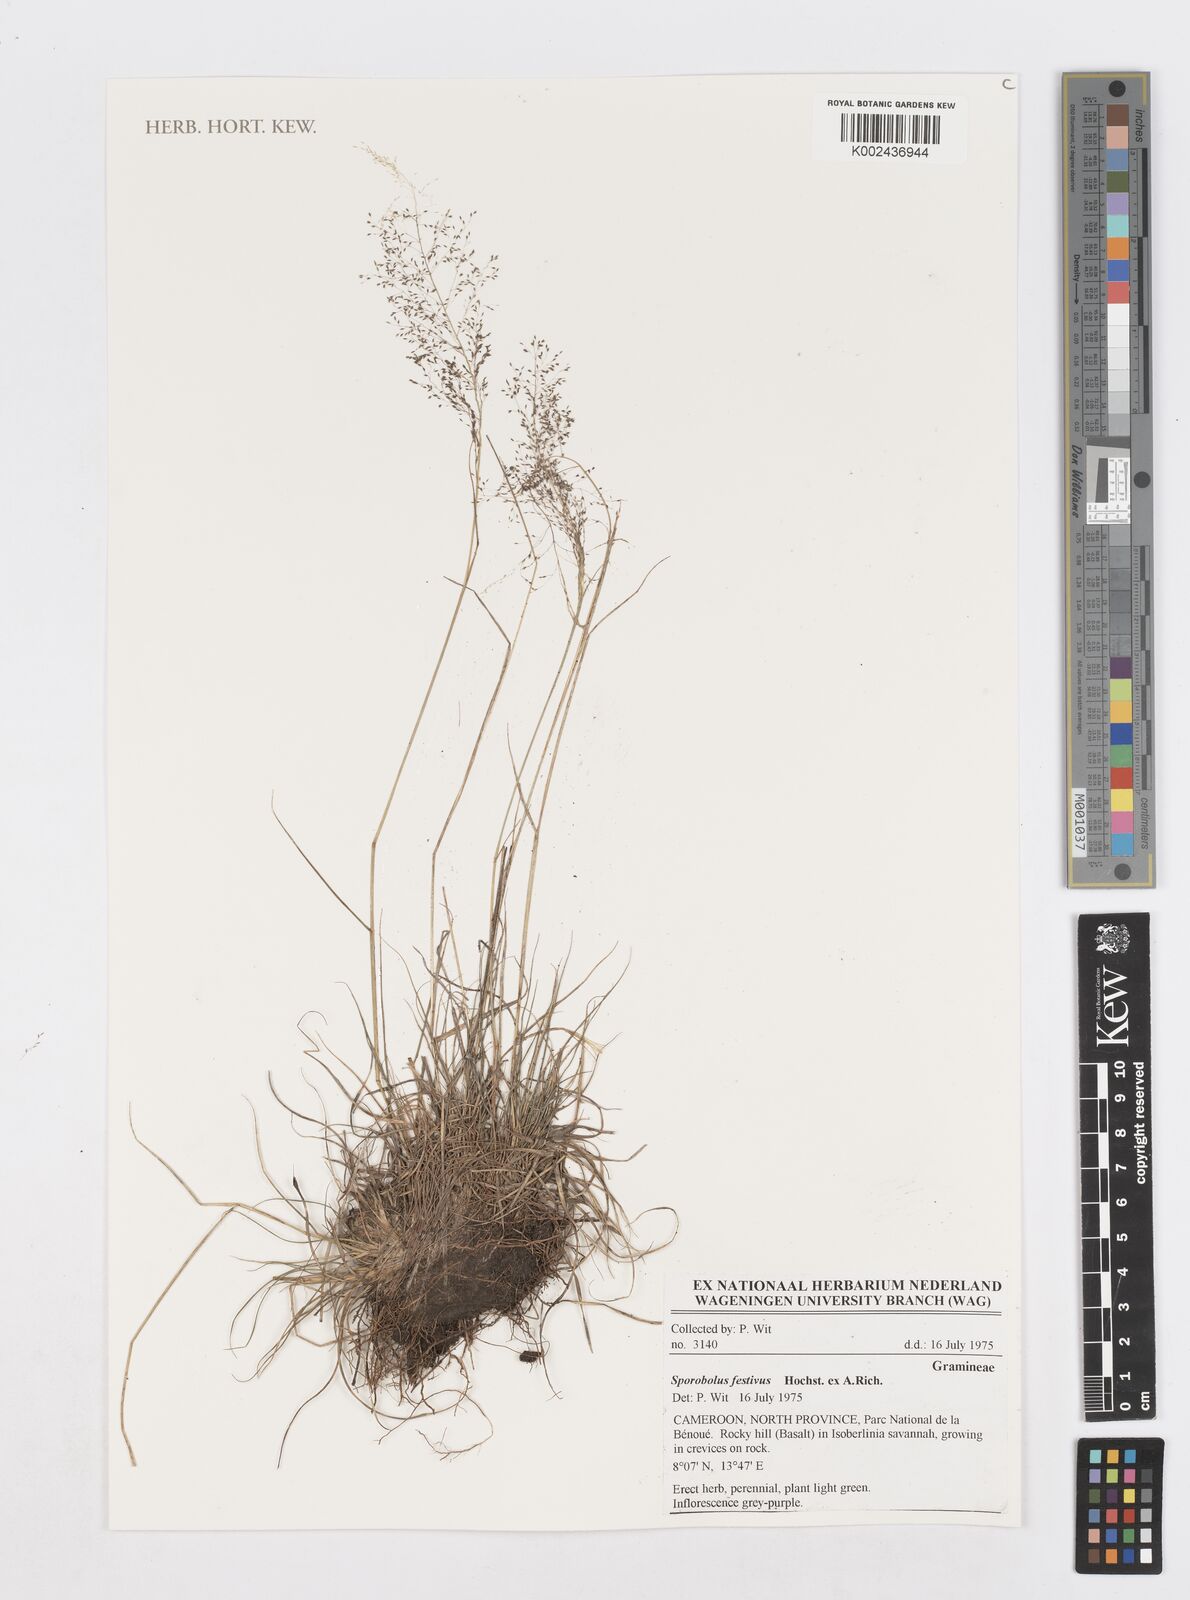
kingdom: Plantae
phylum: Tracheophyta
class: Liliopsida
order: Poales
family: Poaceae
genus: Sporobolus
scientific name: Sporobolus festivus
